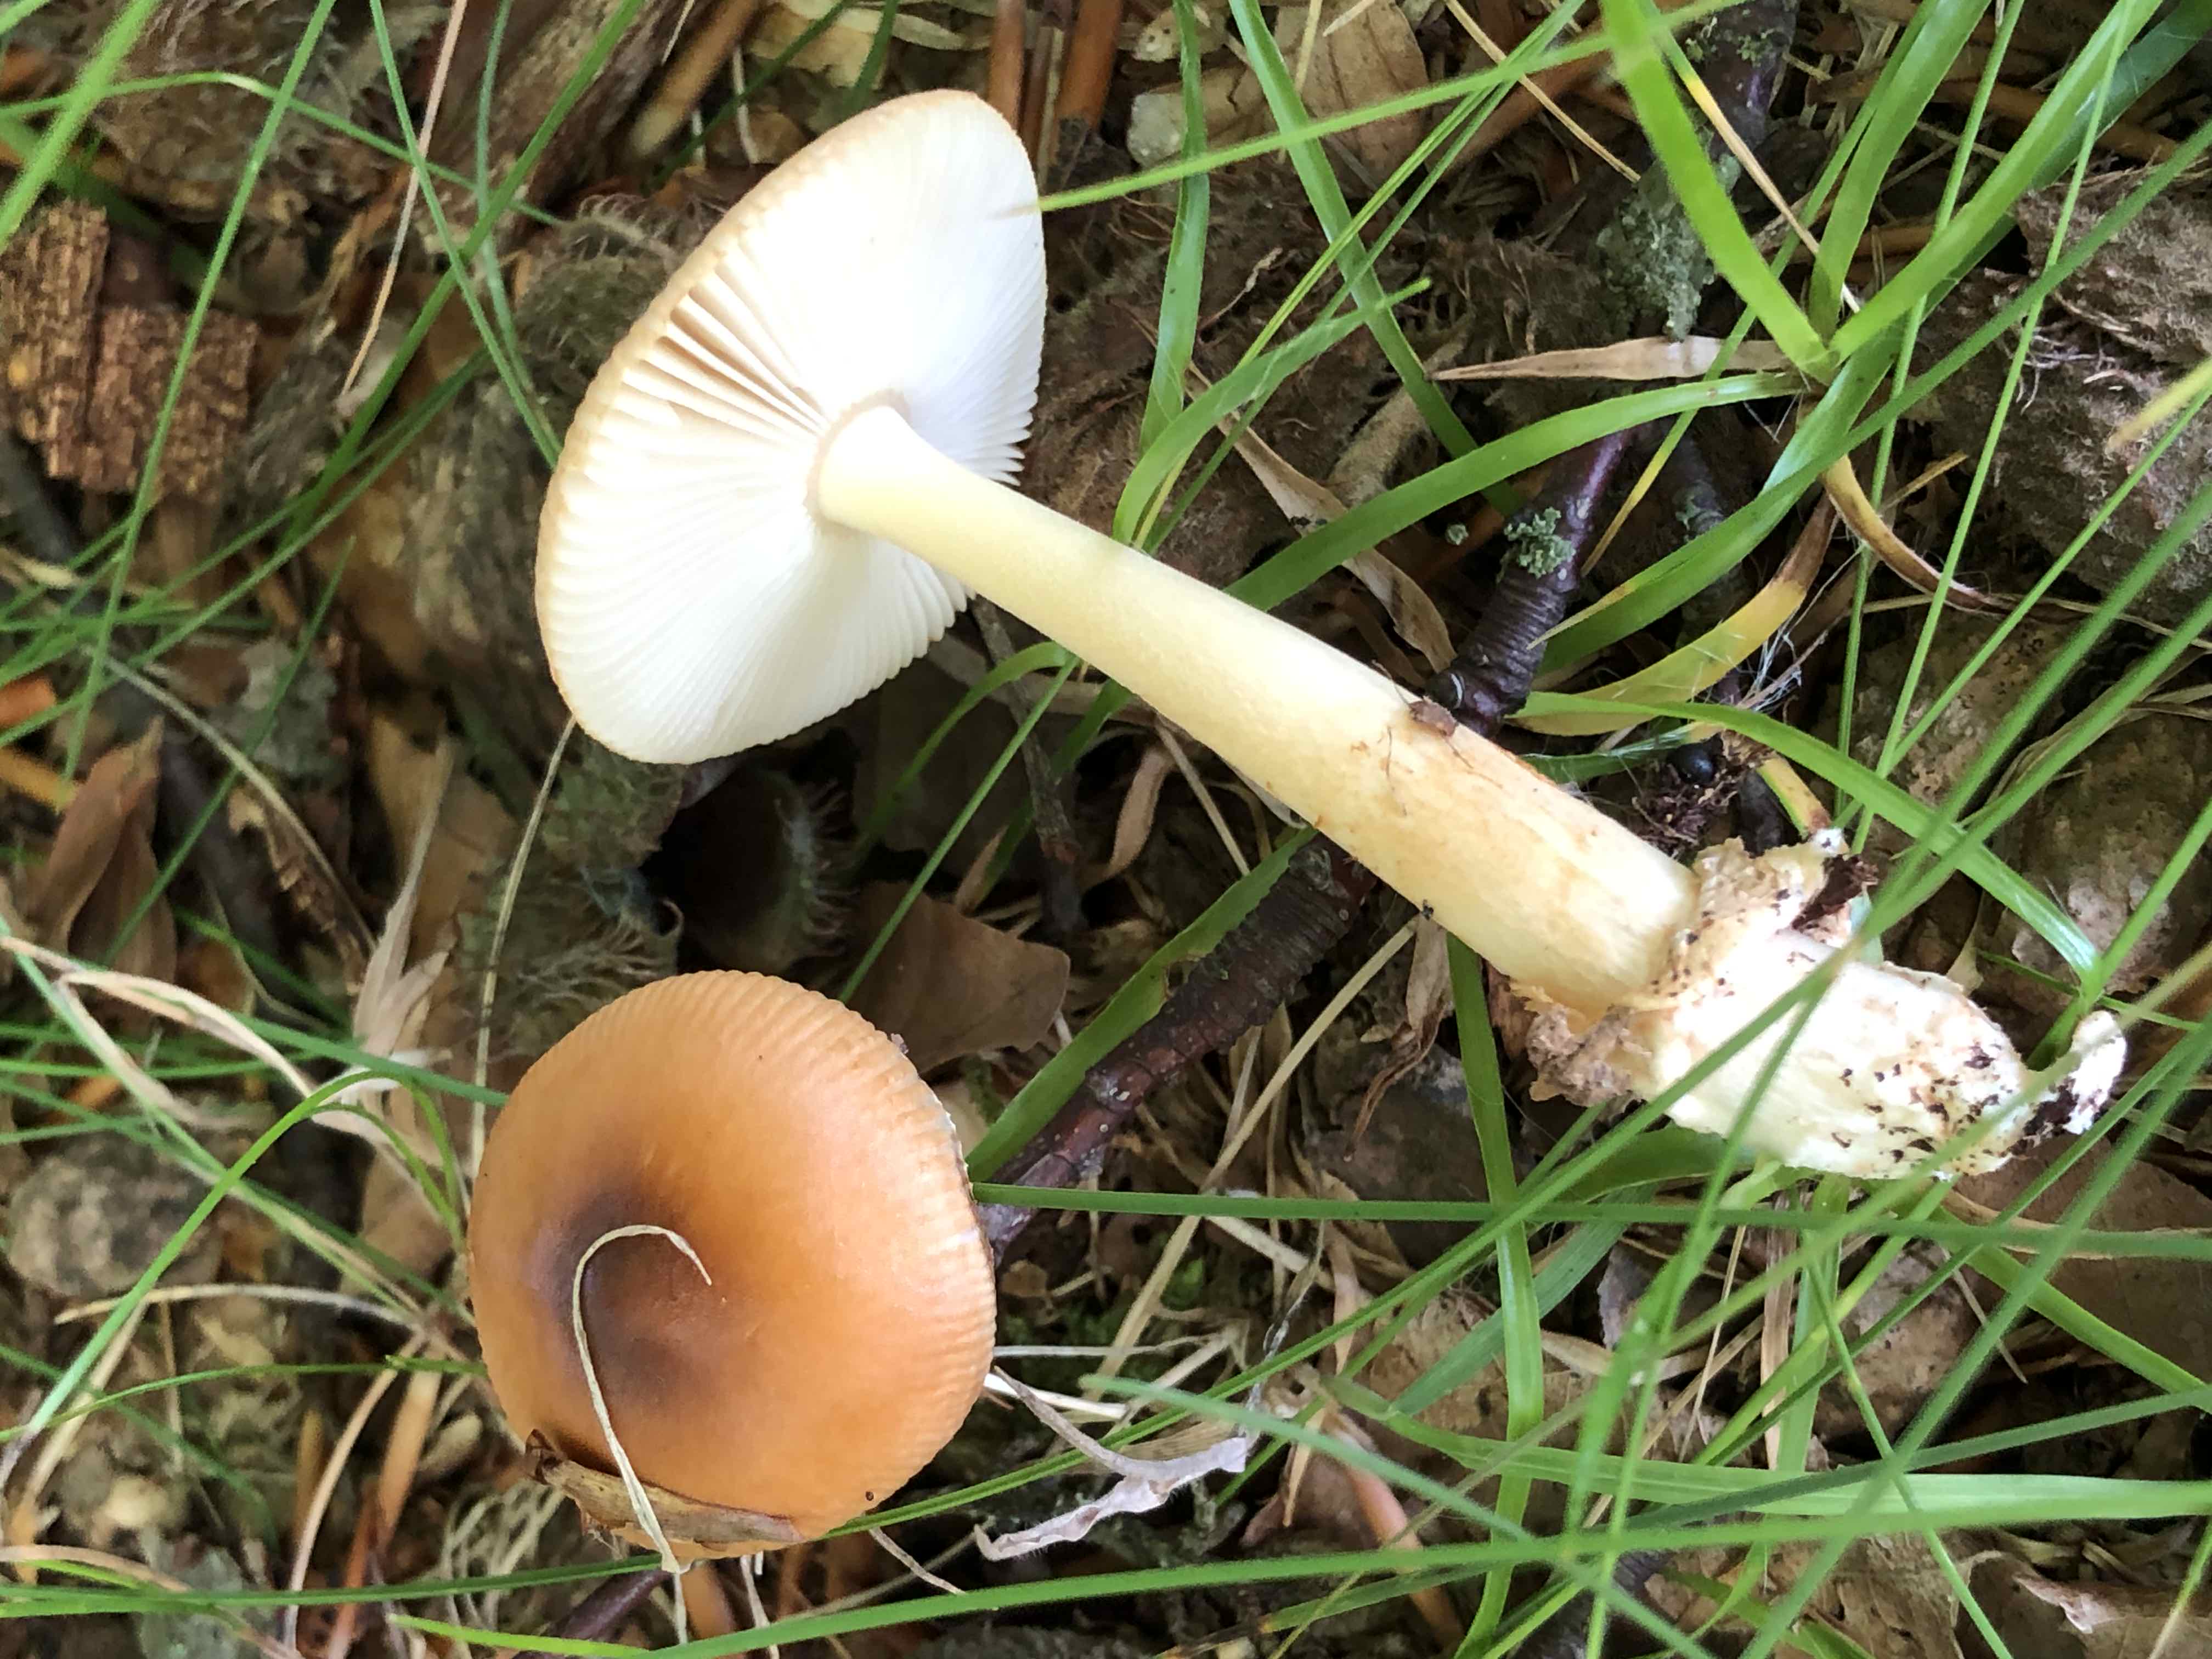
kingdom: Fungi
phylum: Basidiomycota
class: Agaricomycetes
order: Agaricales
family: Amanitaceae
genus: Amanita
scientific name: Amanita fulva
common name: brun kam-fluesvamp
